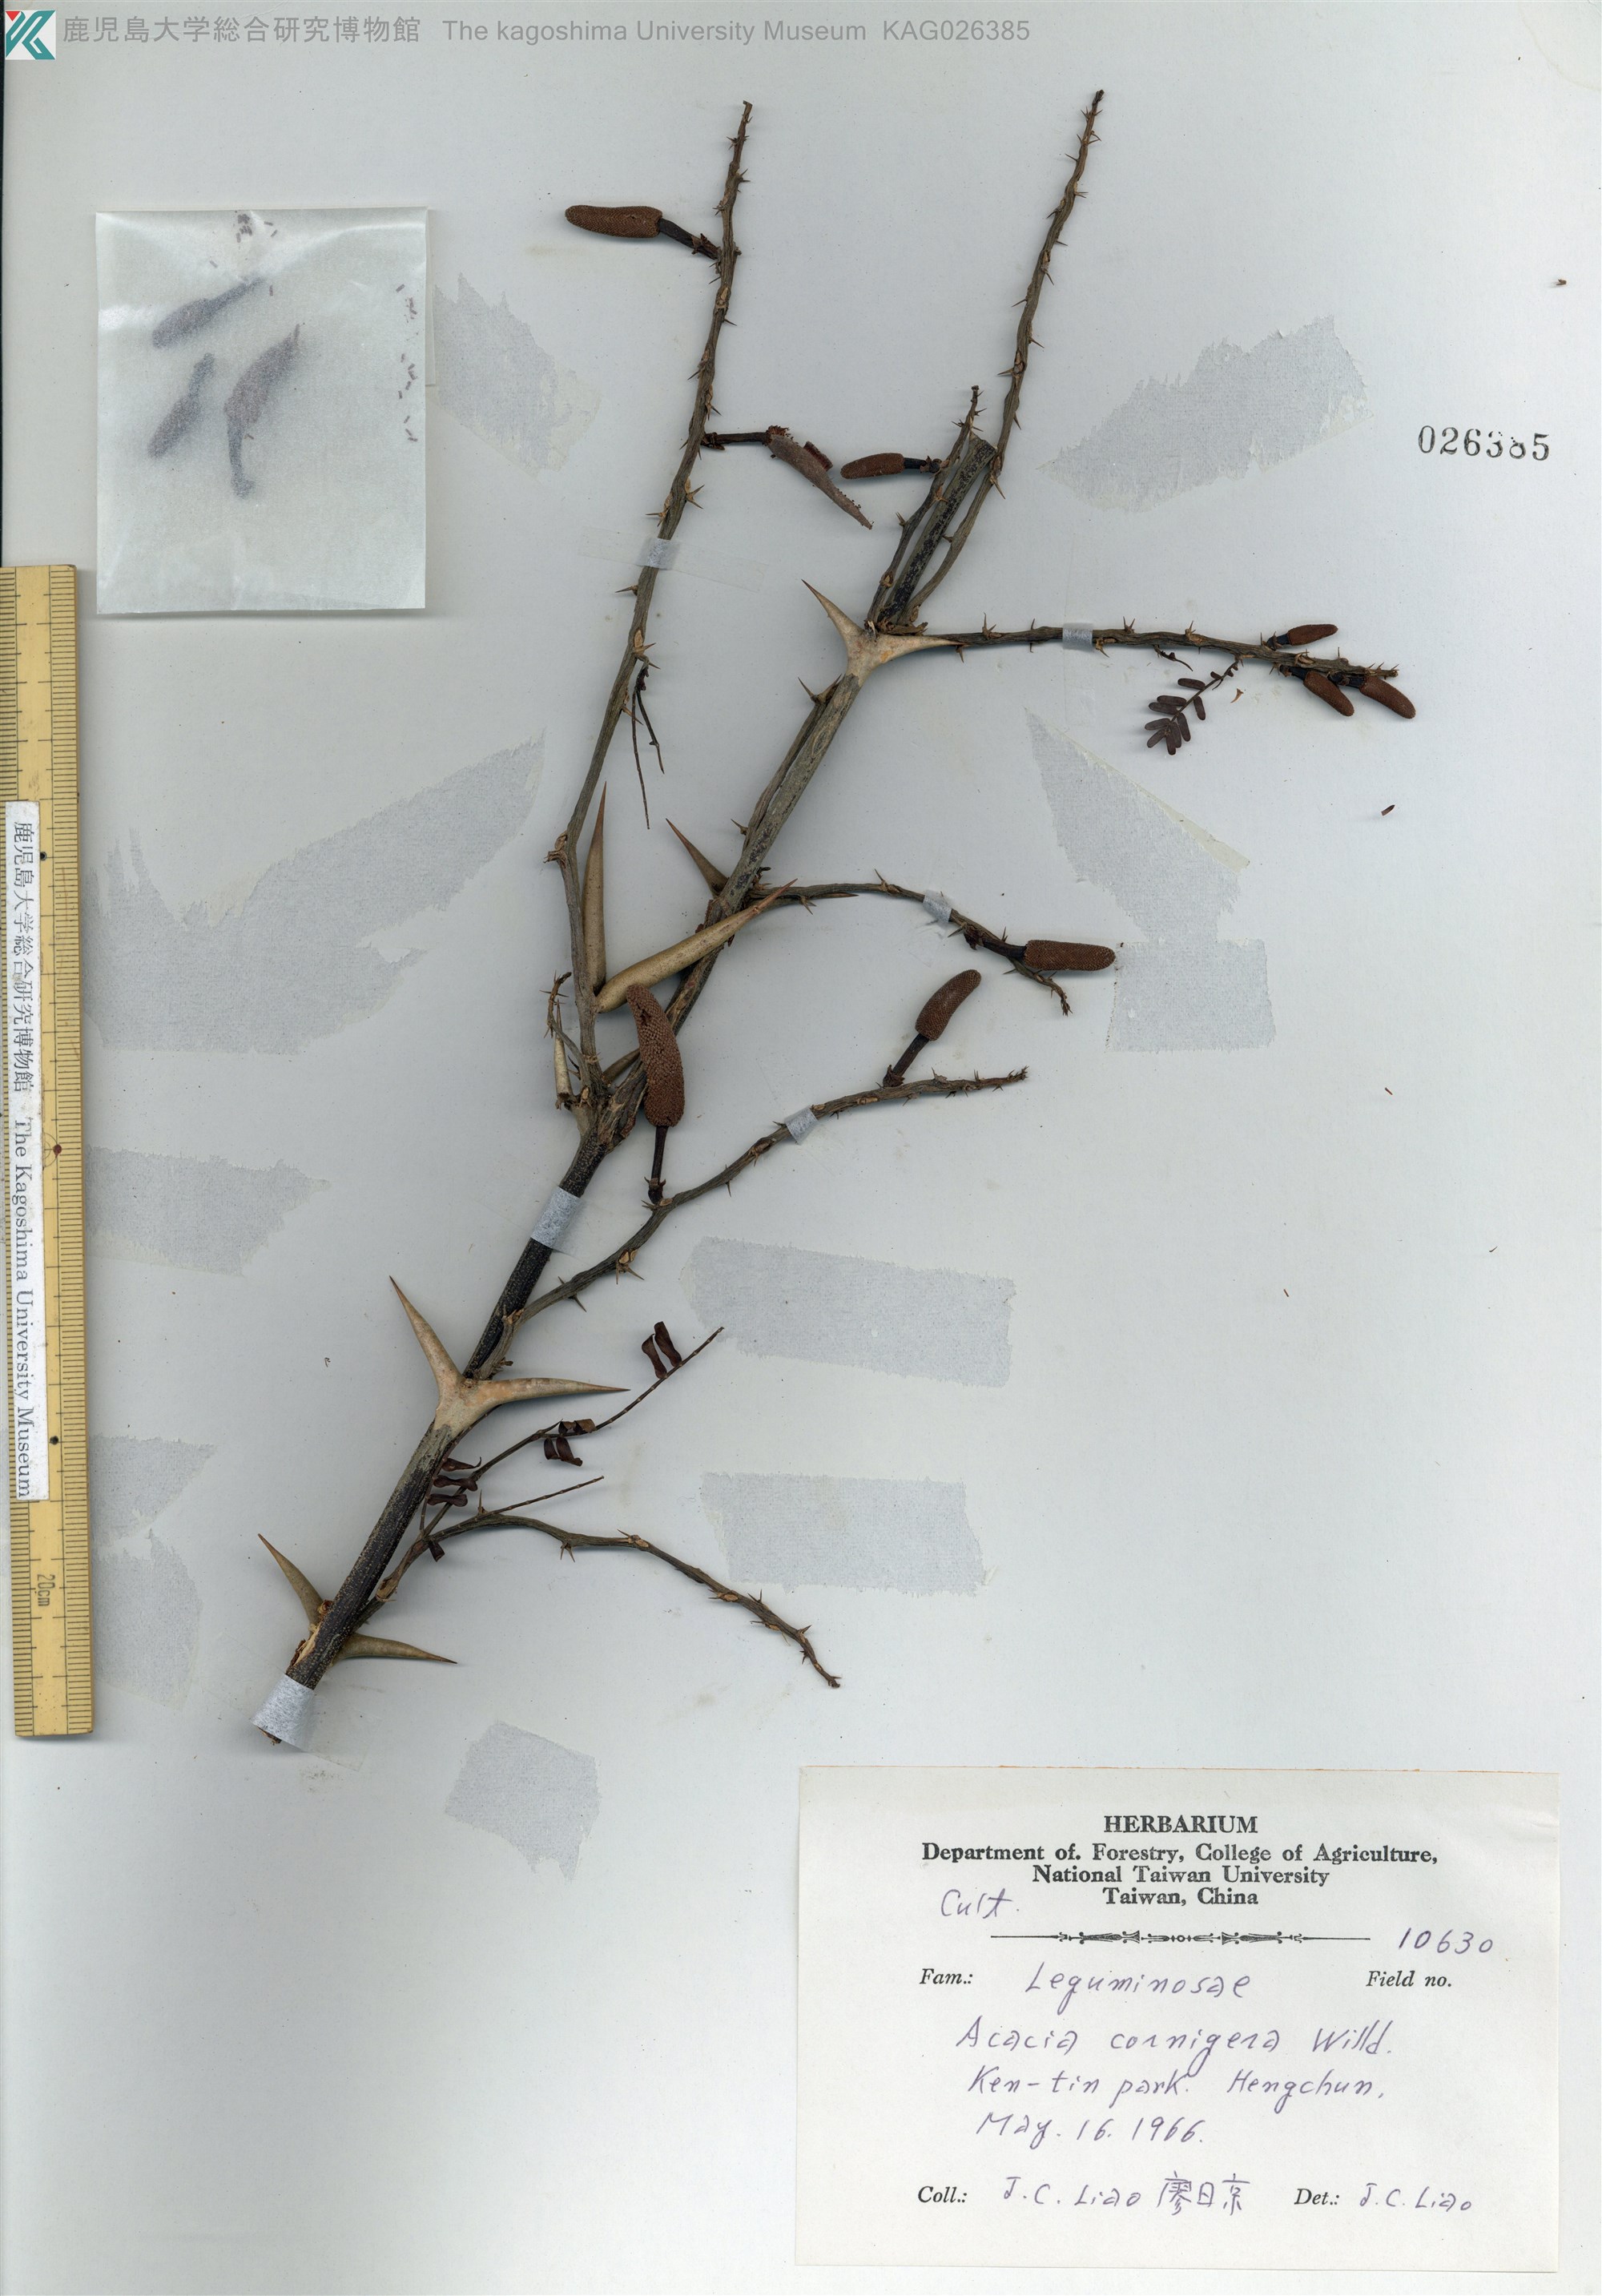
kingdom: Plantae
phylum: Tracheophyta
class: Magnoliopsida
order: Fabales
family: Fabaceae
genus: Acacia
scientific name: Acacia cornigera
